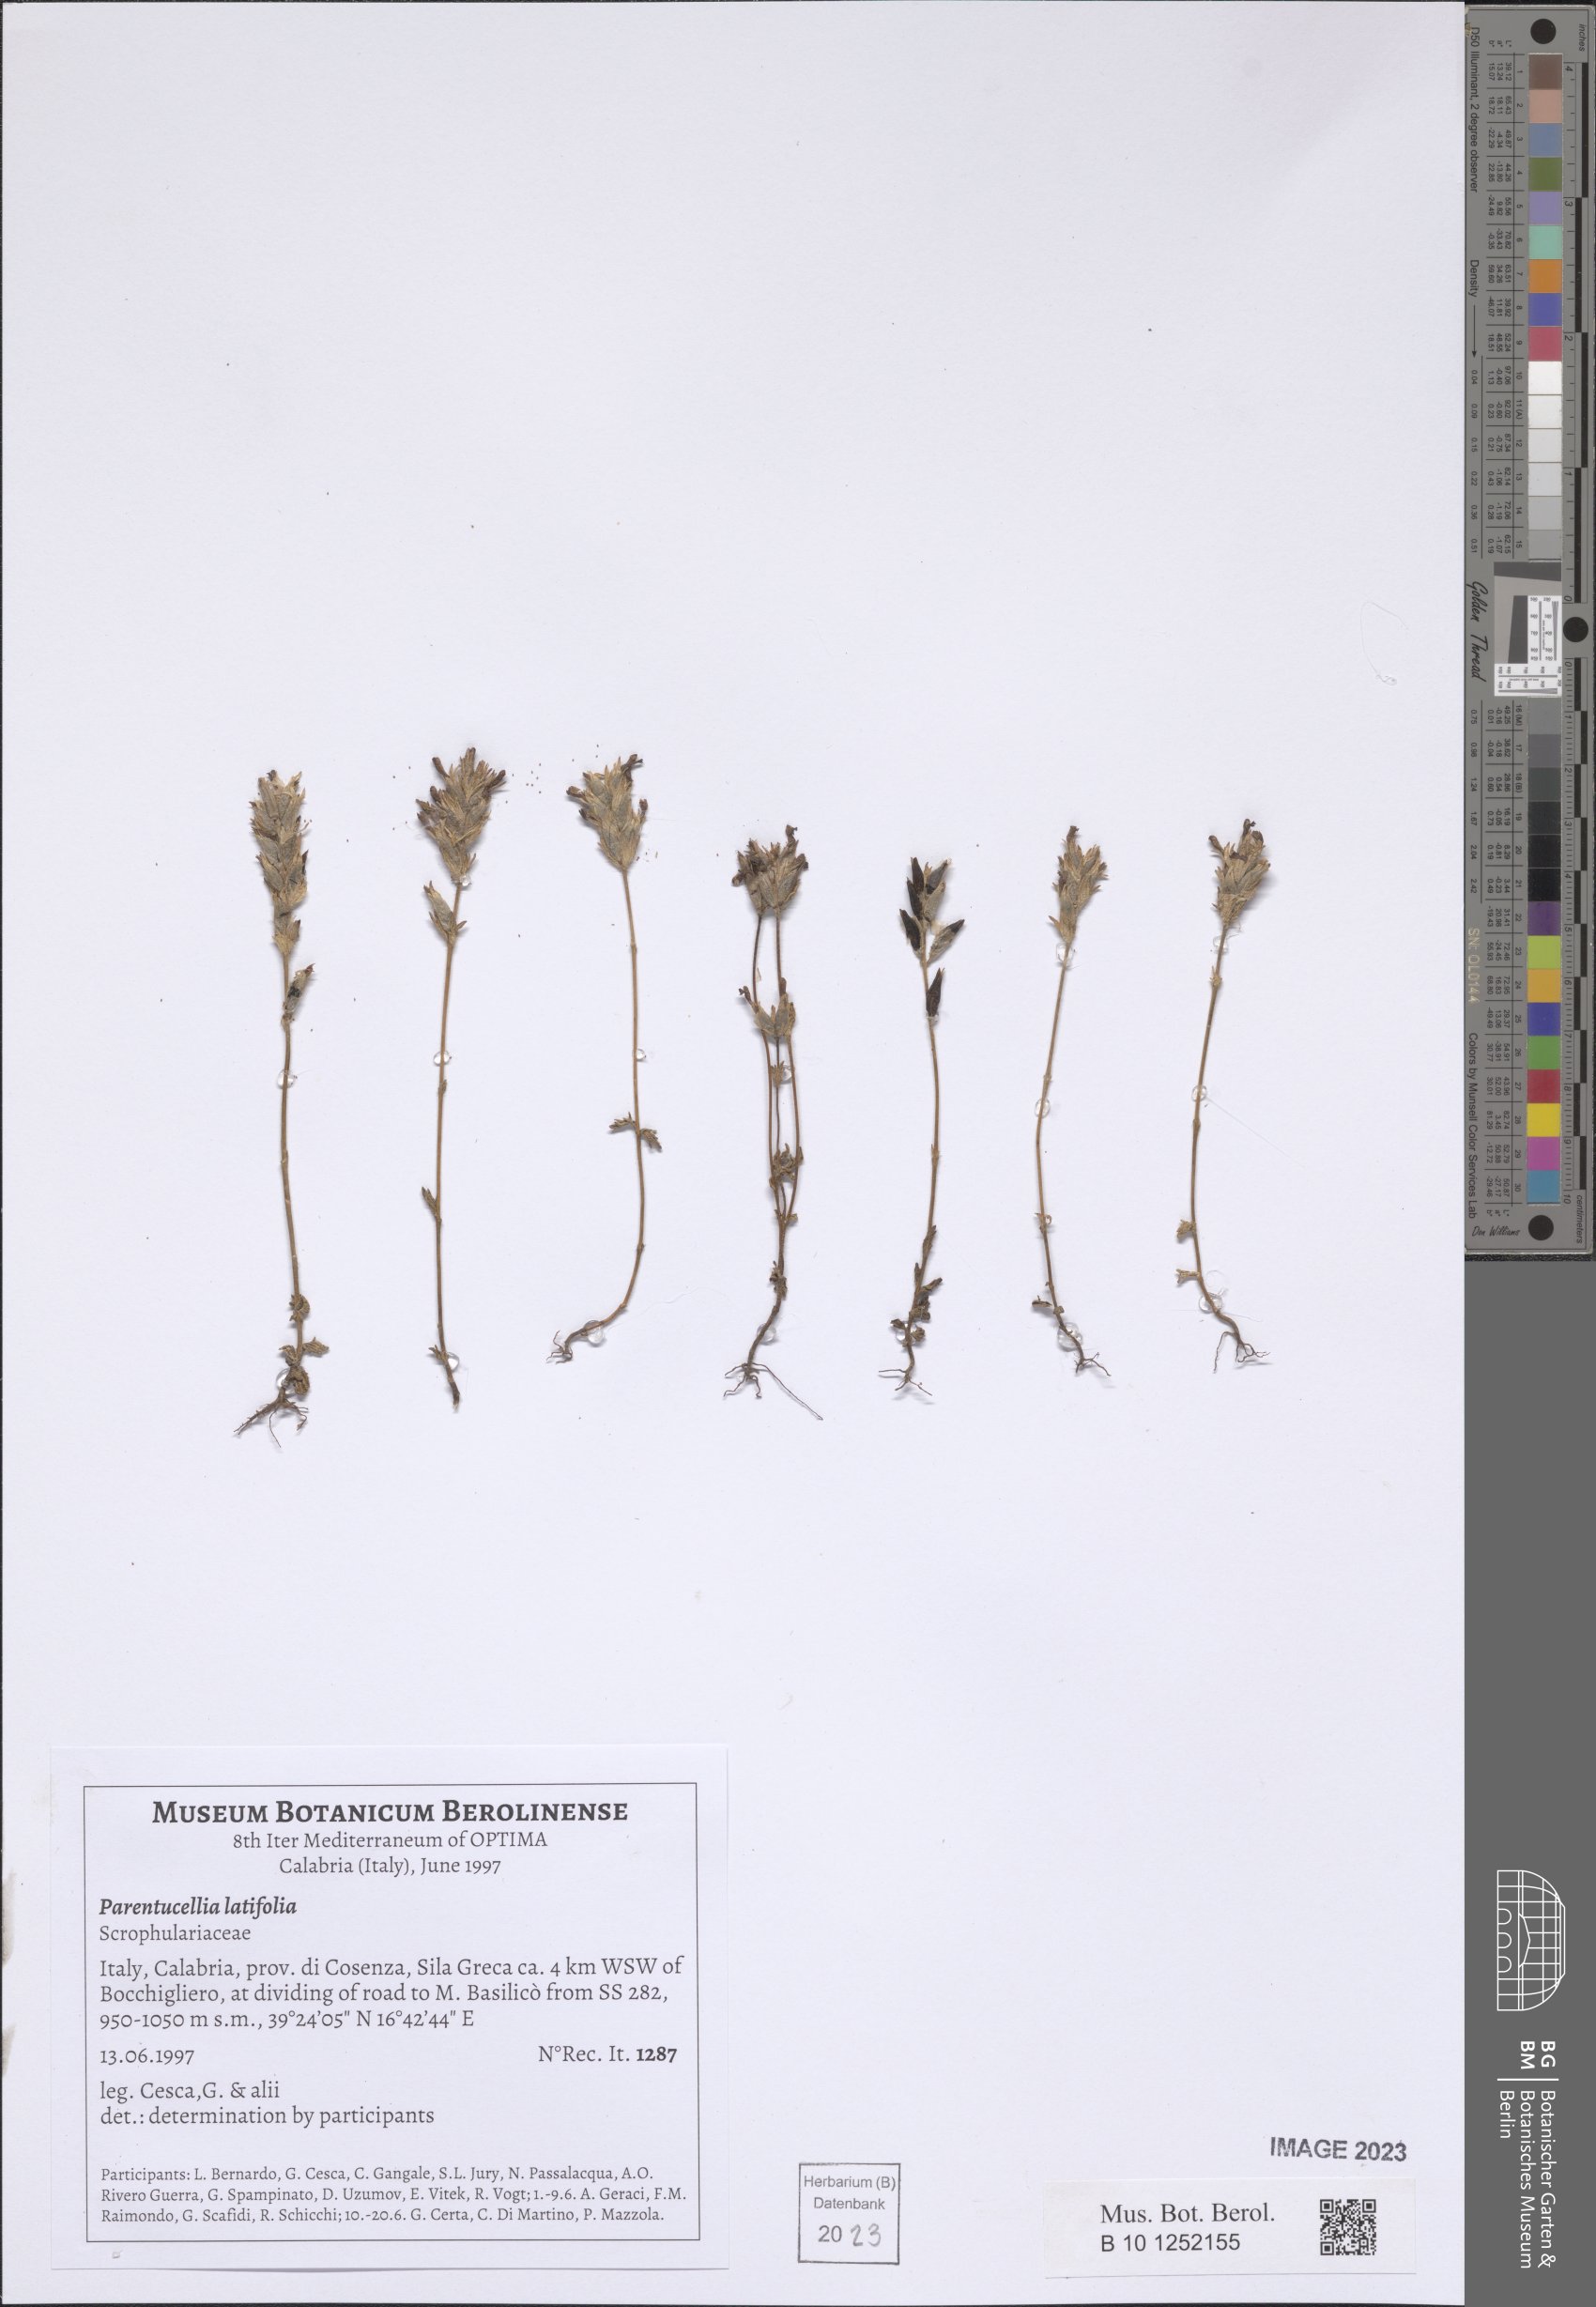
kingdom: Plantae
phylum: Tracheophyta
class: Magnoliopsida
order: Lamiales
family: Orobanchaceae
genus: Parentucellia
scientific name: Parentucellia latifolia
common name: Broadleaf glandweed
